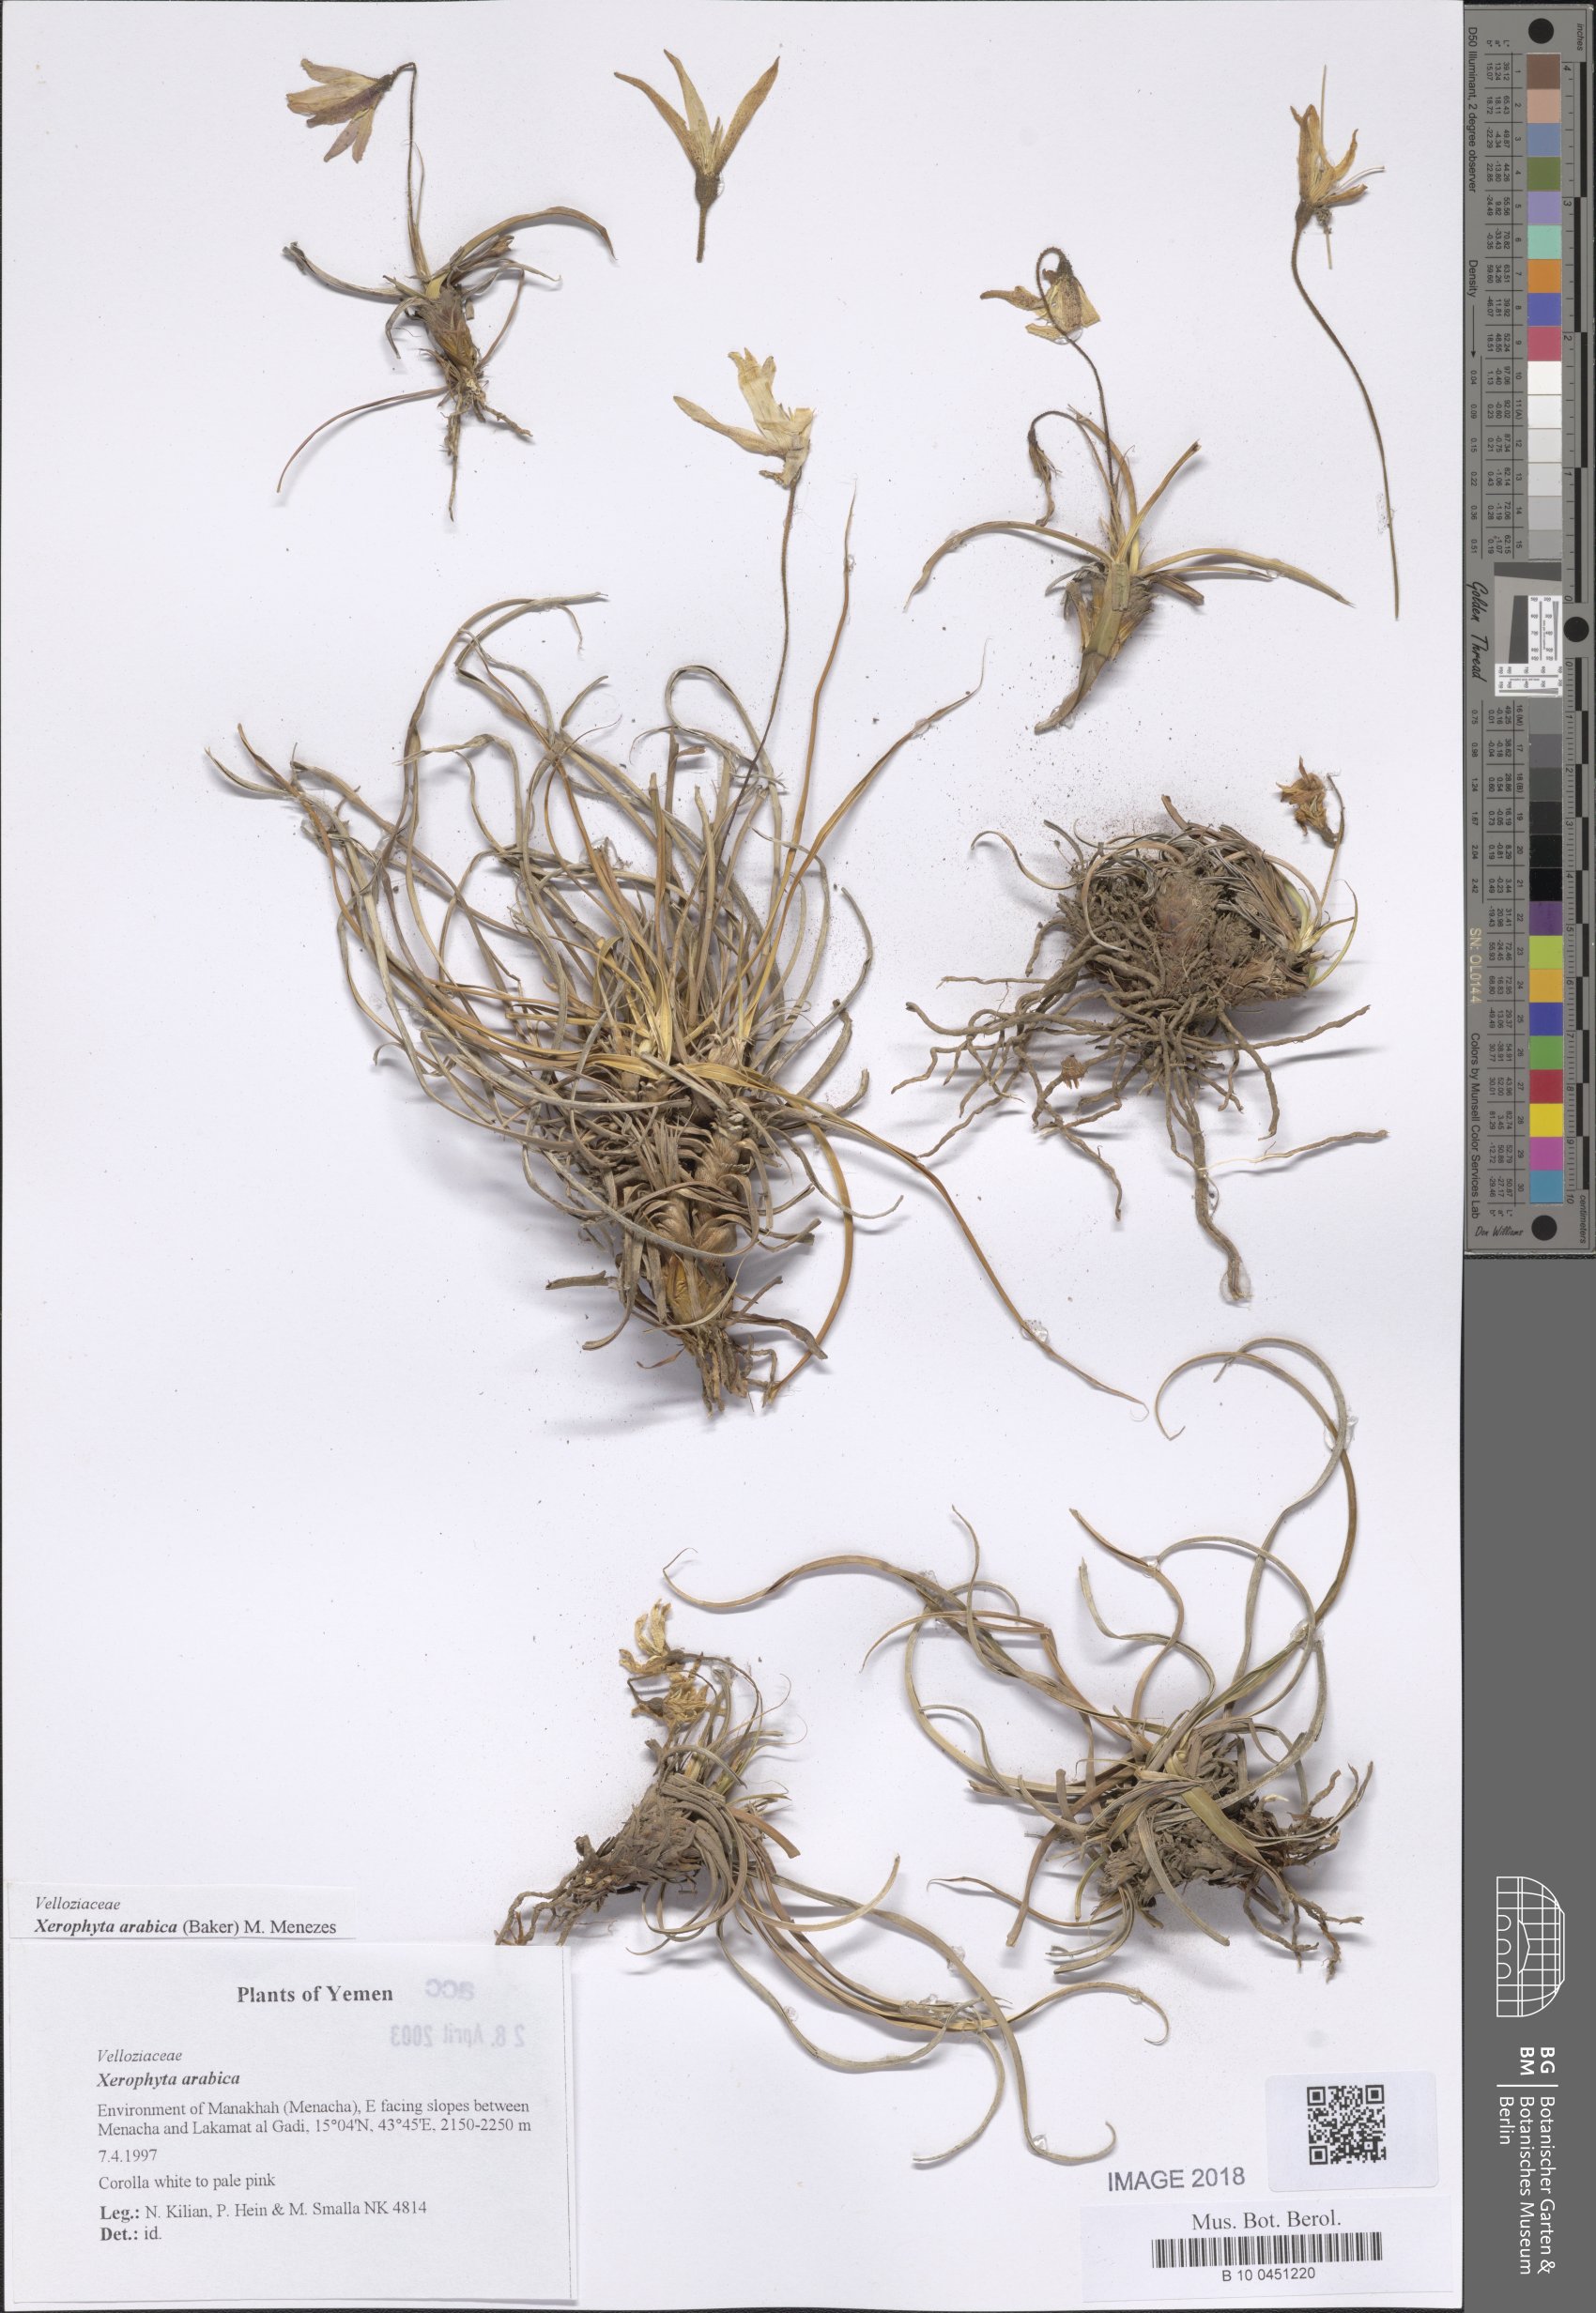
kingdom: Plantae
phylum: Tracheophyta
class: Liliopsida
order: Pandanales
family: Velloziaceae
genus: Xerophyta
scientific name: Xerophyta arabica
